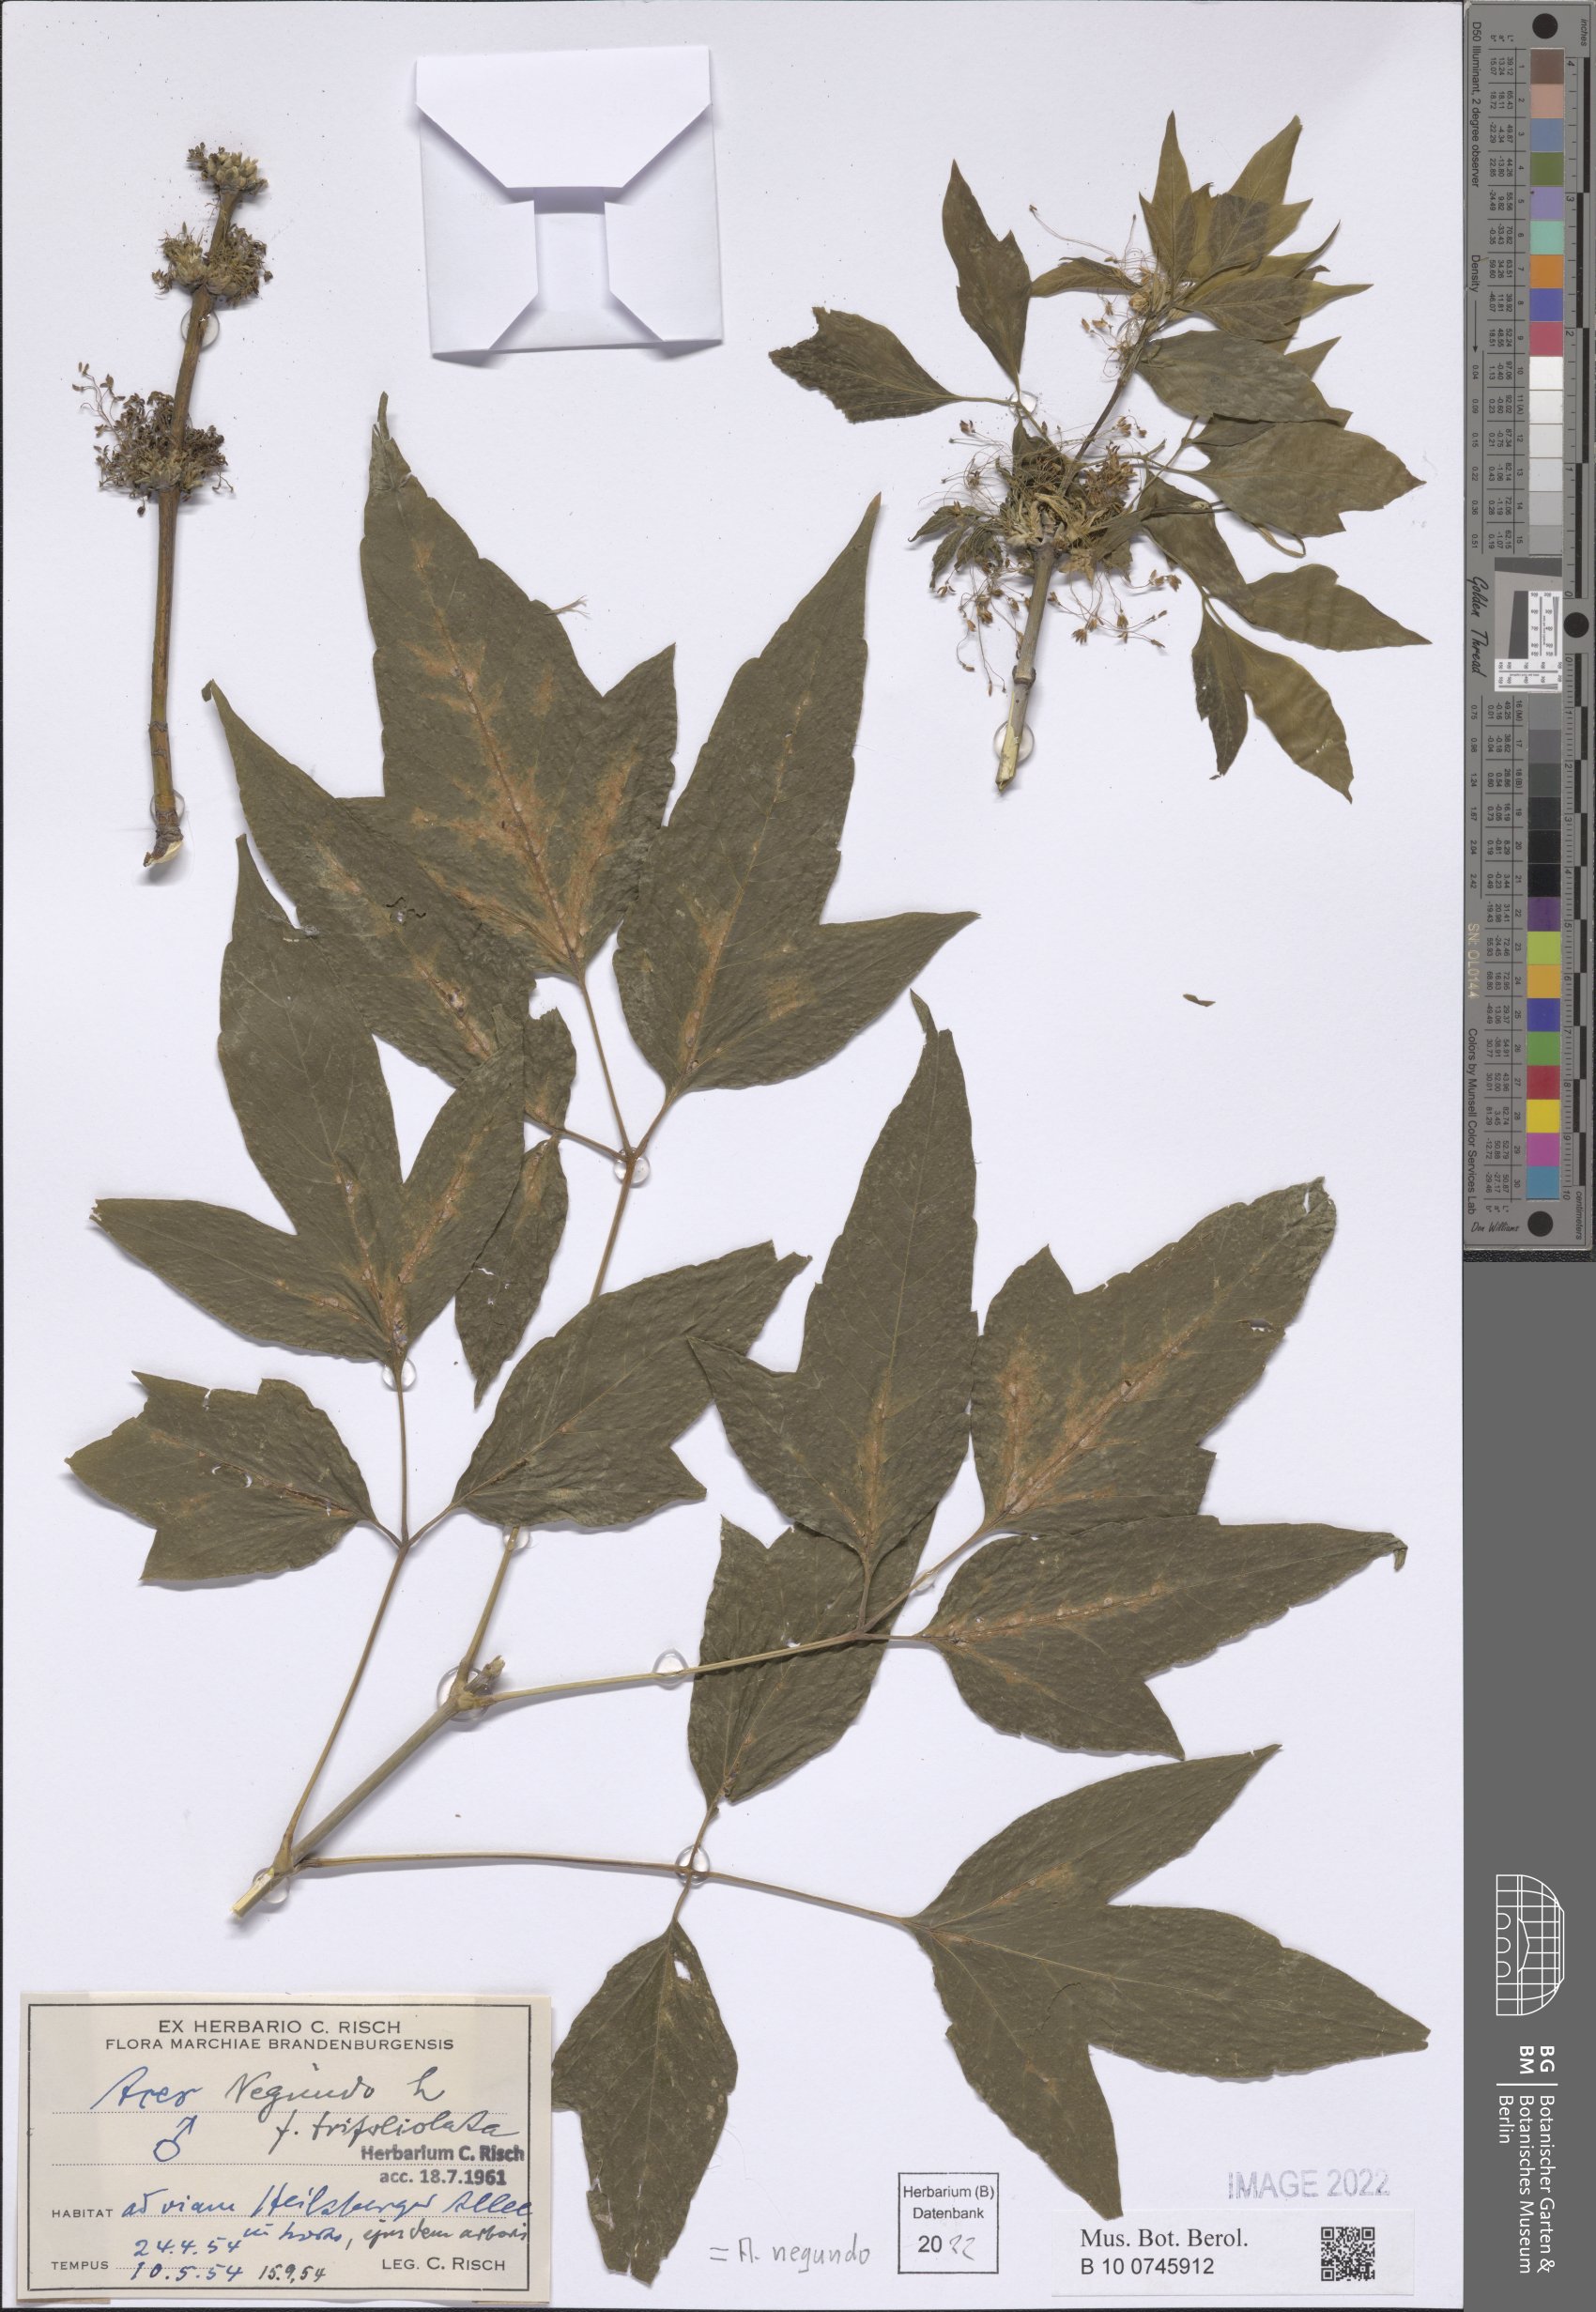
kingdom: Plantae
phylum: Tracheophyta
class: Magnoliopsida
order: Sapindales
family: Sapindaceae
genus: Acer
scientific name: Acer negundo
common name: Ashleaf maple
